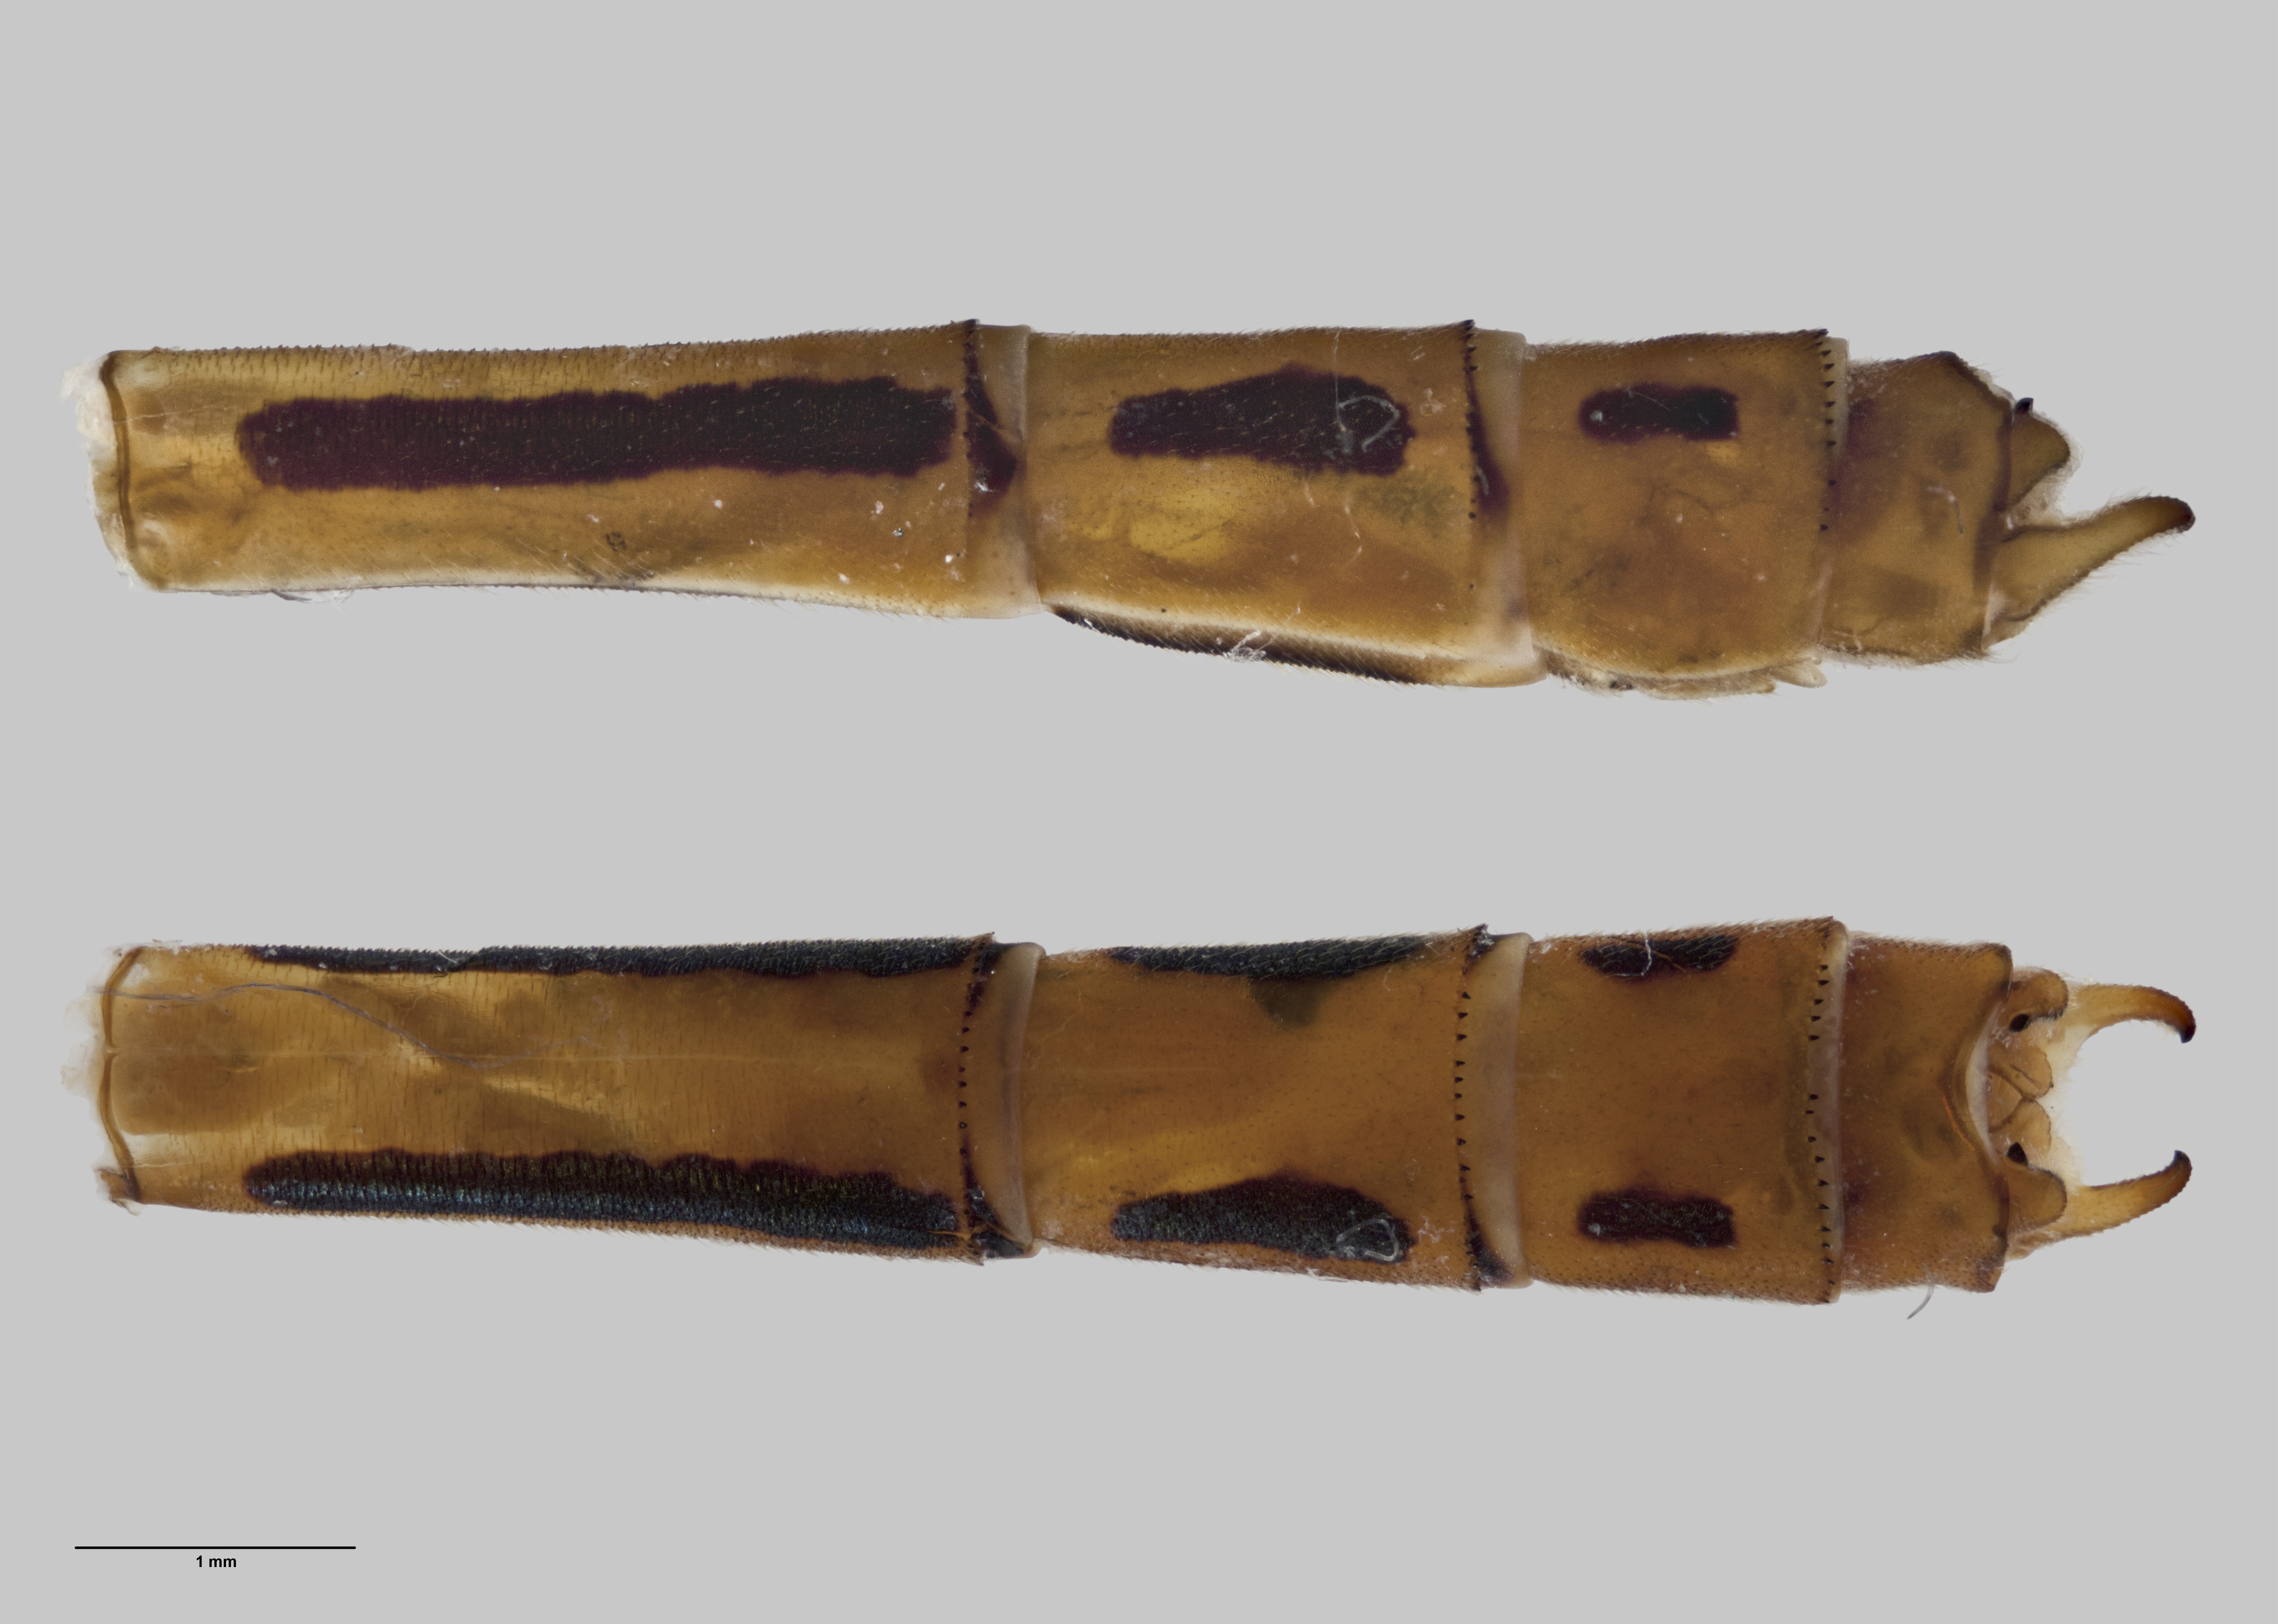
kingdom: Animalia
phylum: Arthropoda
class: Insecta
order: Odonata
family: Coenagrionidae
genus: Xanthocnemis
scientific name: Xanthocnemis zealandica
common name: Common redcoat damselfly
